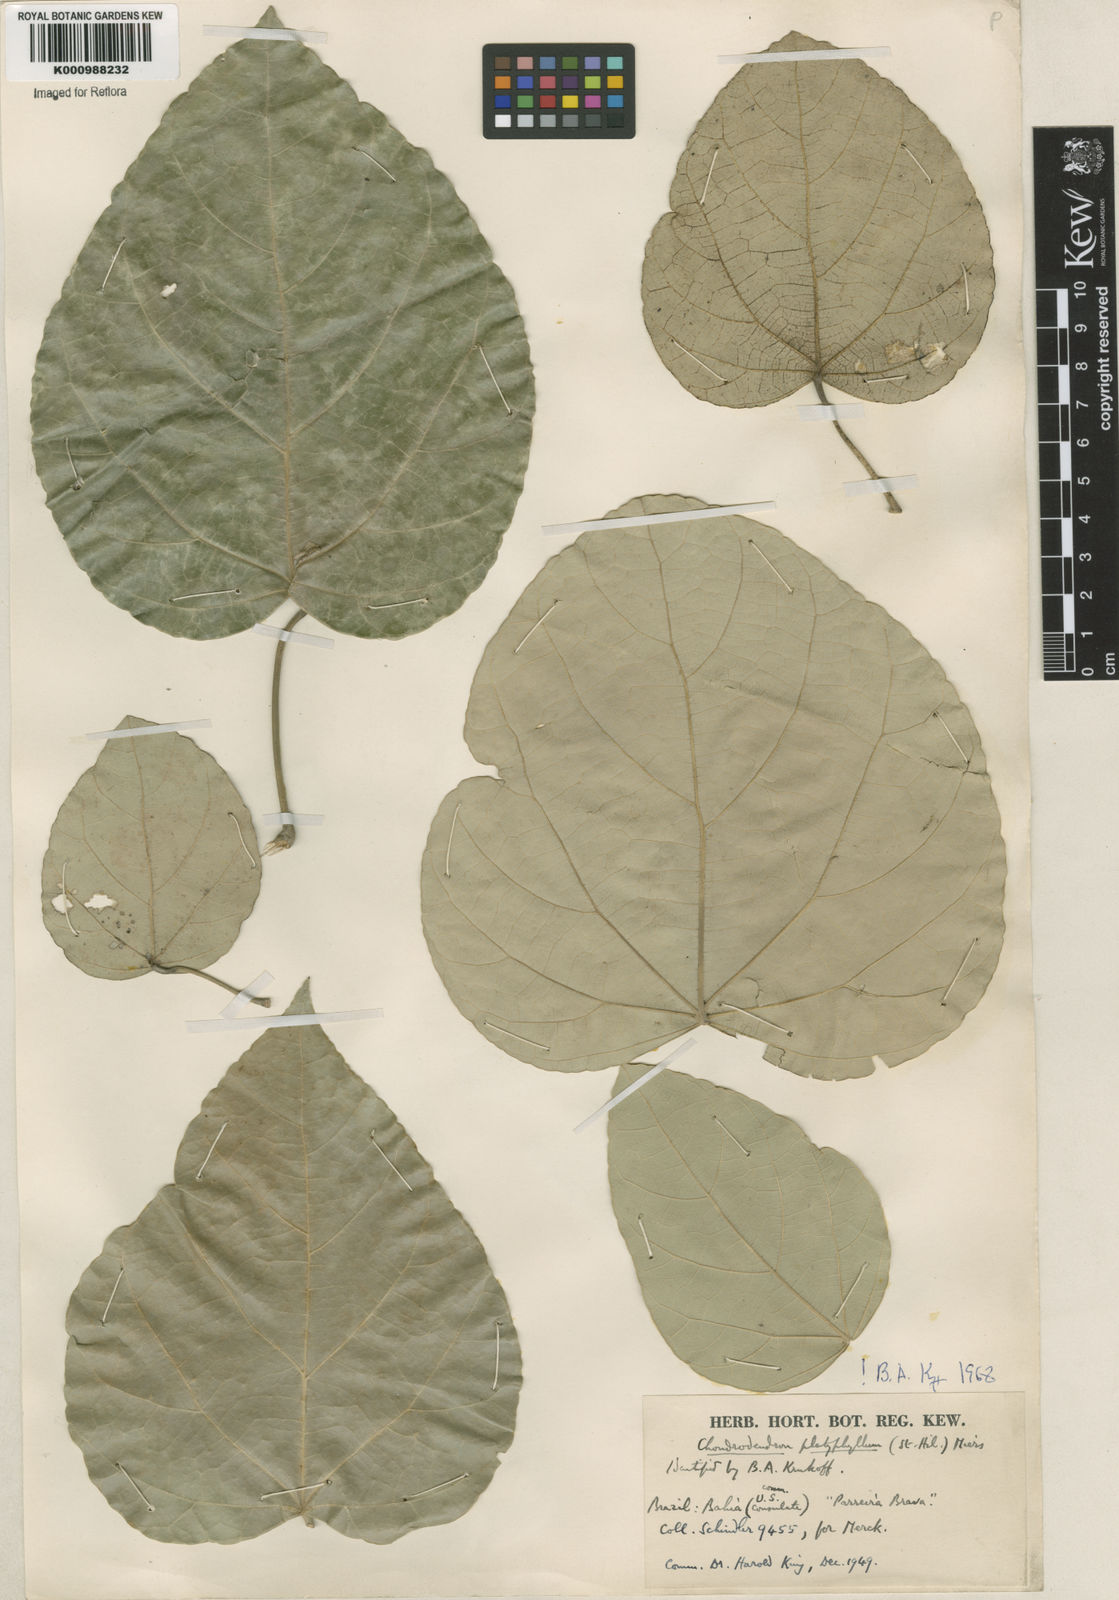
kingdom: Plantae
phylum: Tracheophyta
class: Magnoliopsida
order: Ranunculales
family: Menispermaceae
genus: Chondrodendron
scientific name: Chondrodendron platyphyllum
